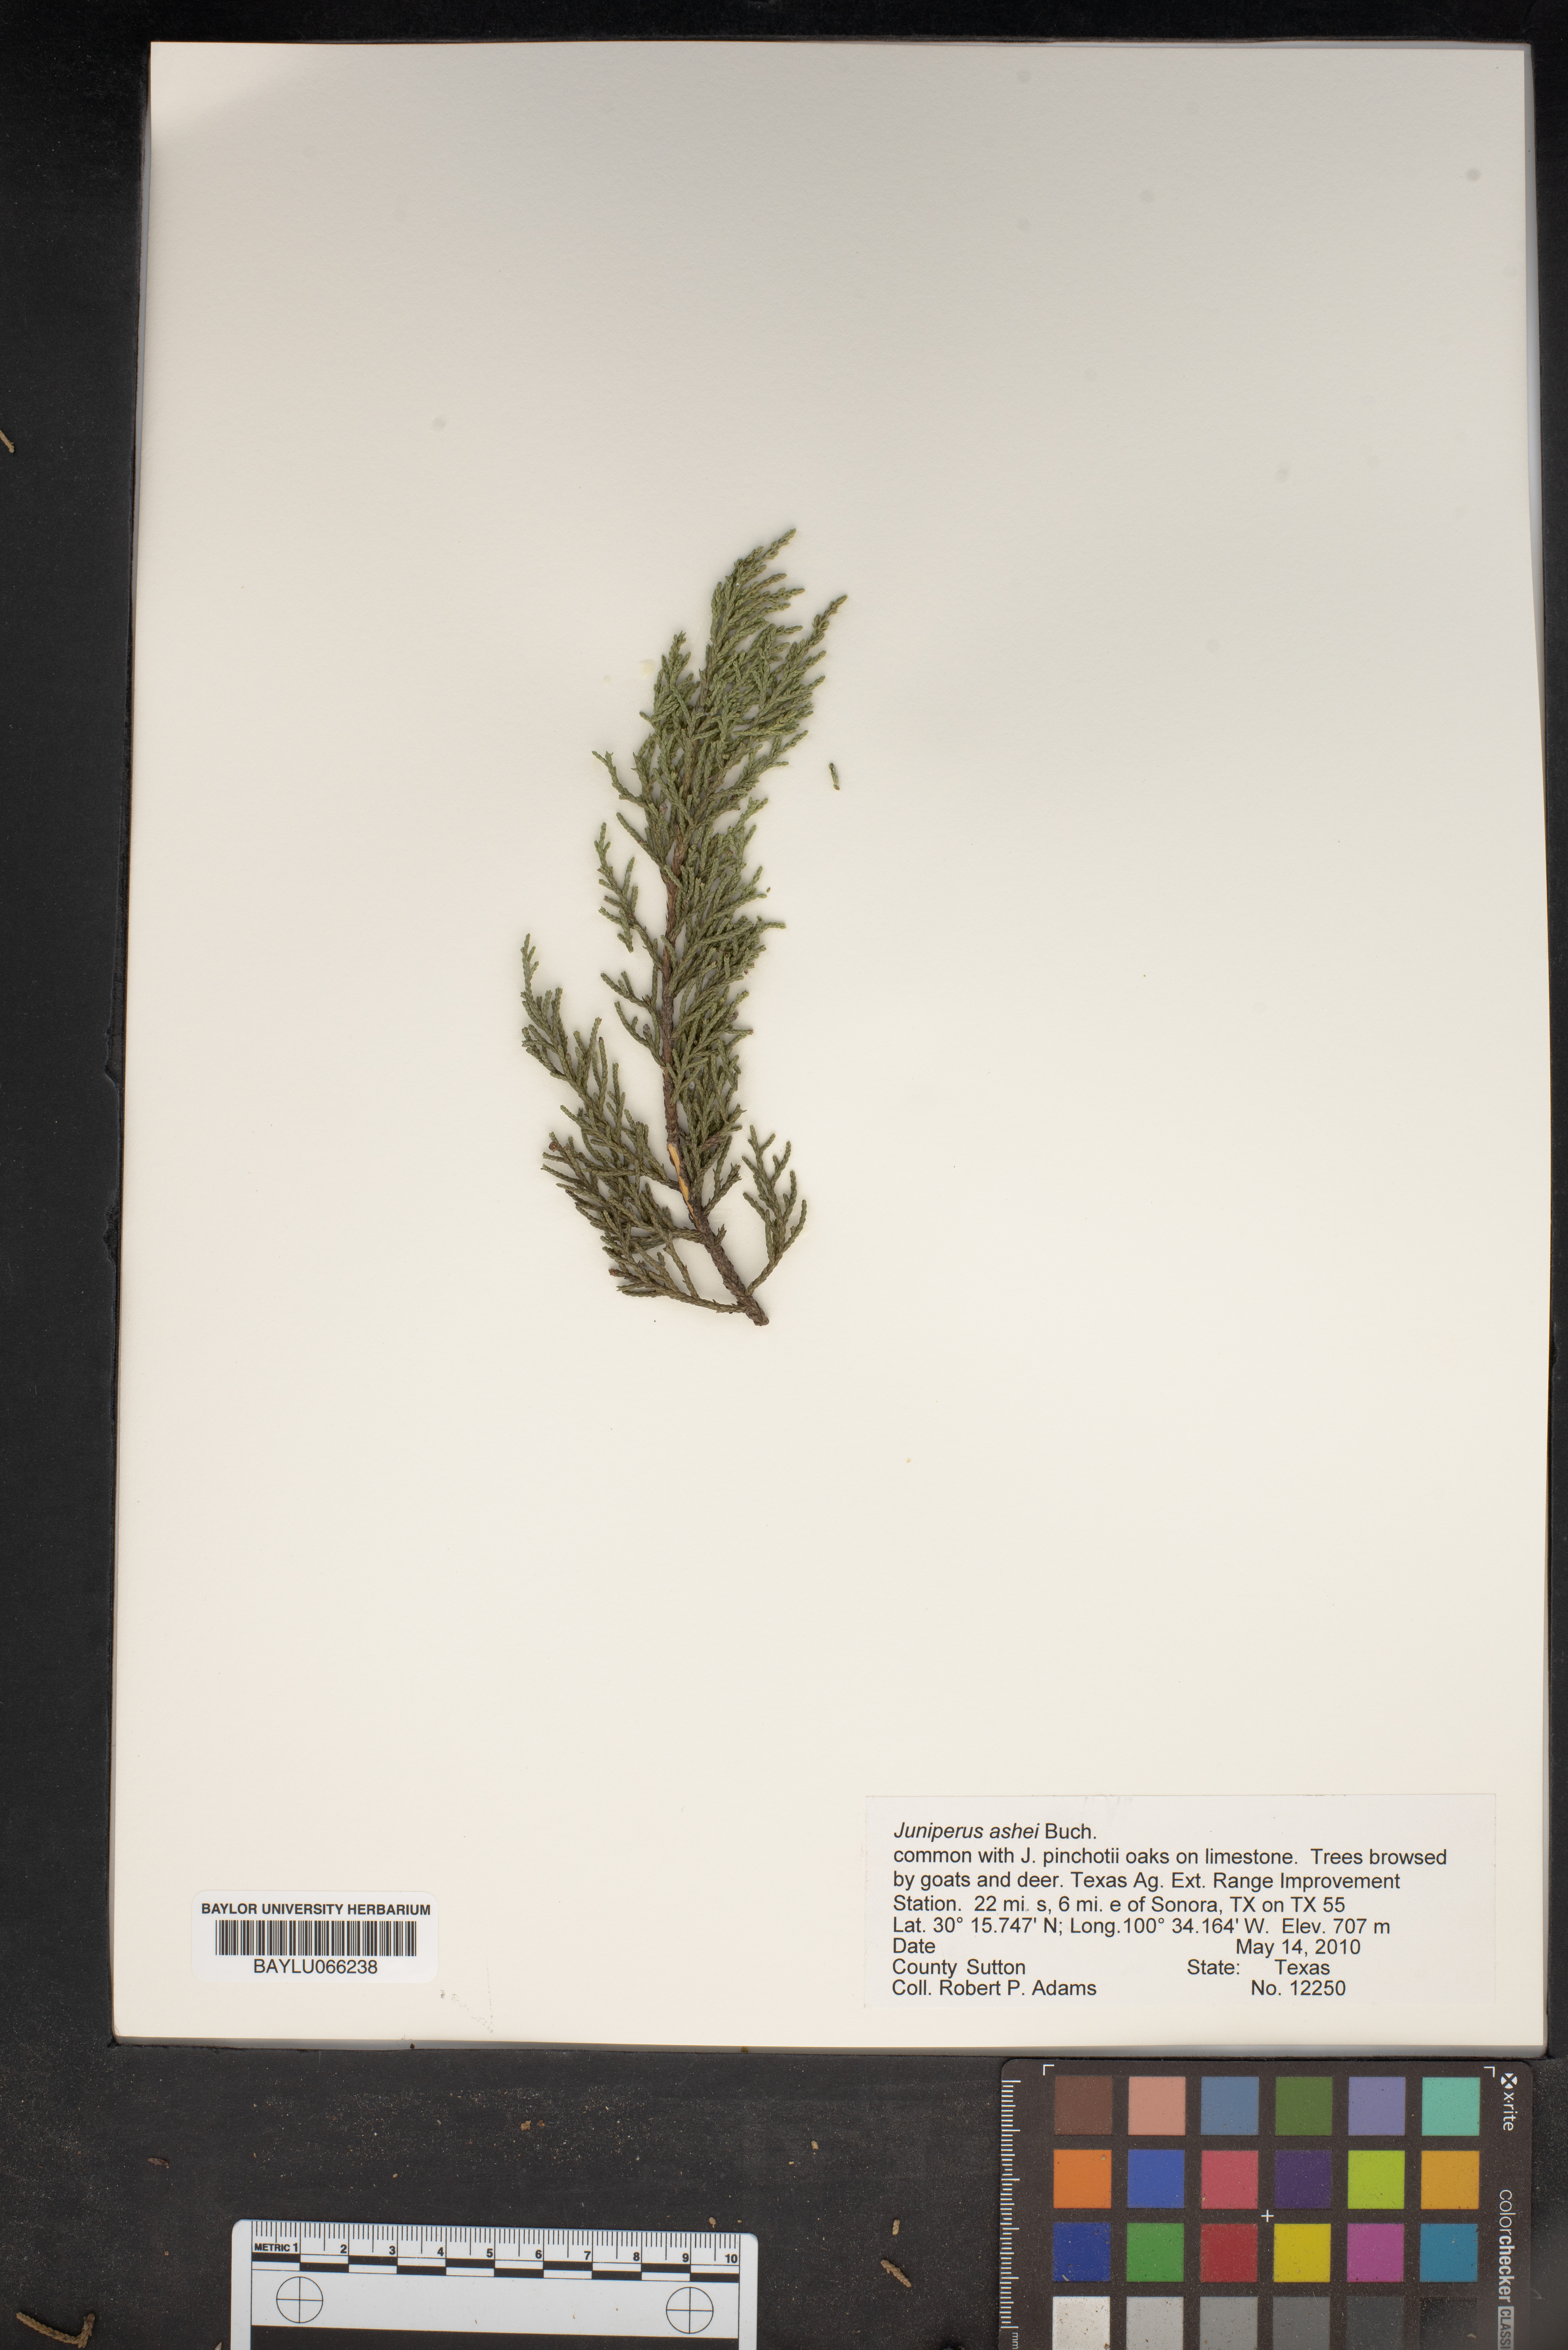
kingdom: Plantae
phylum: Tracheophyta
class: Pinopsida
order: Pinales
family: Cupressaceae
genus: Juniperus
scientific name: Juniperus ashei
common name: Mexican juniper
